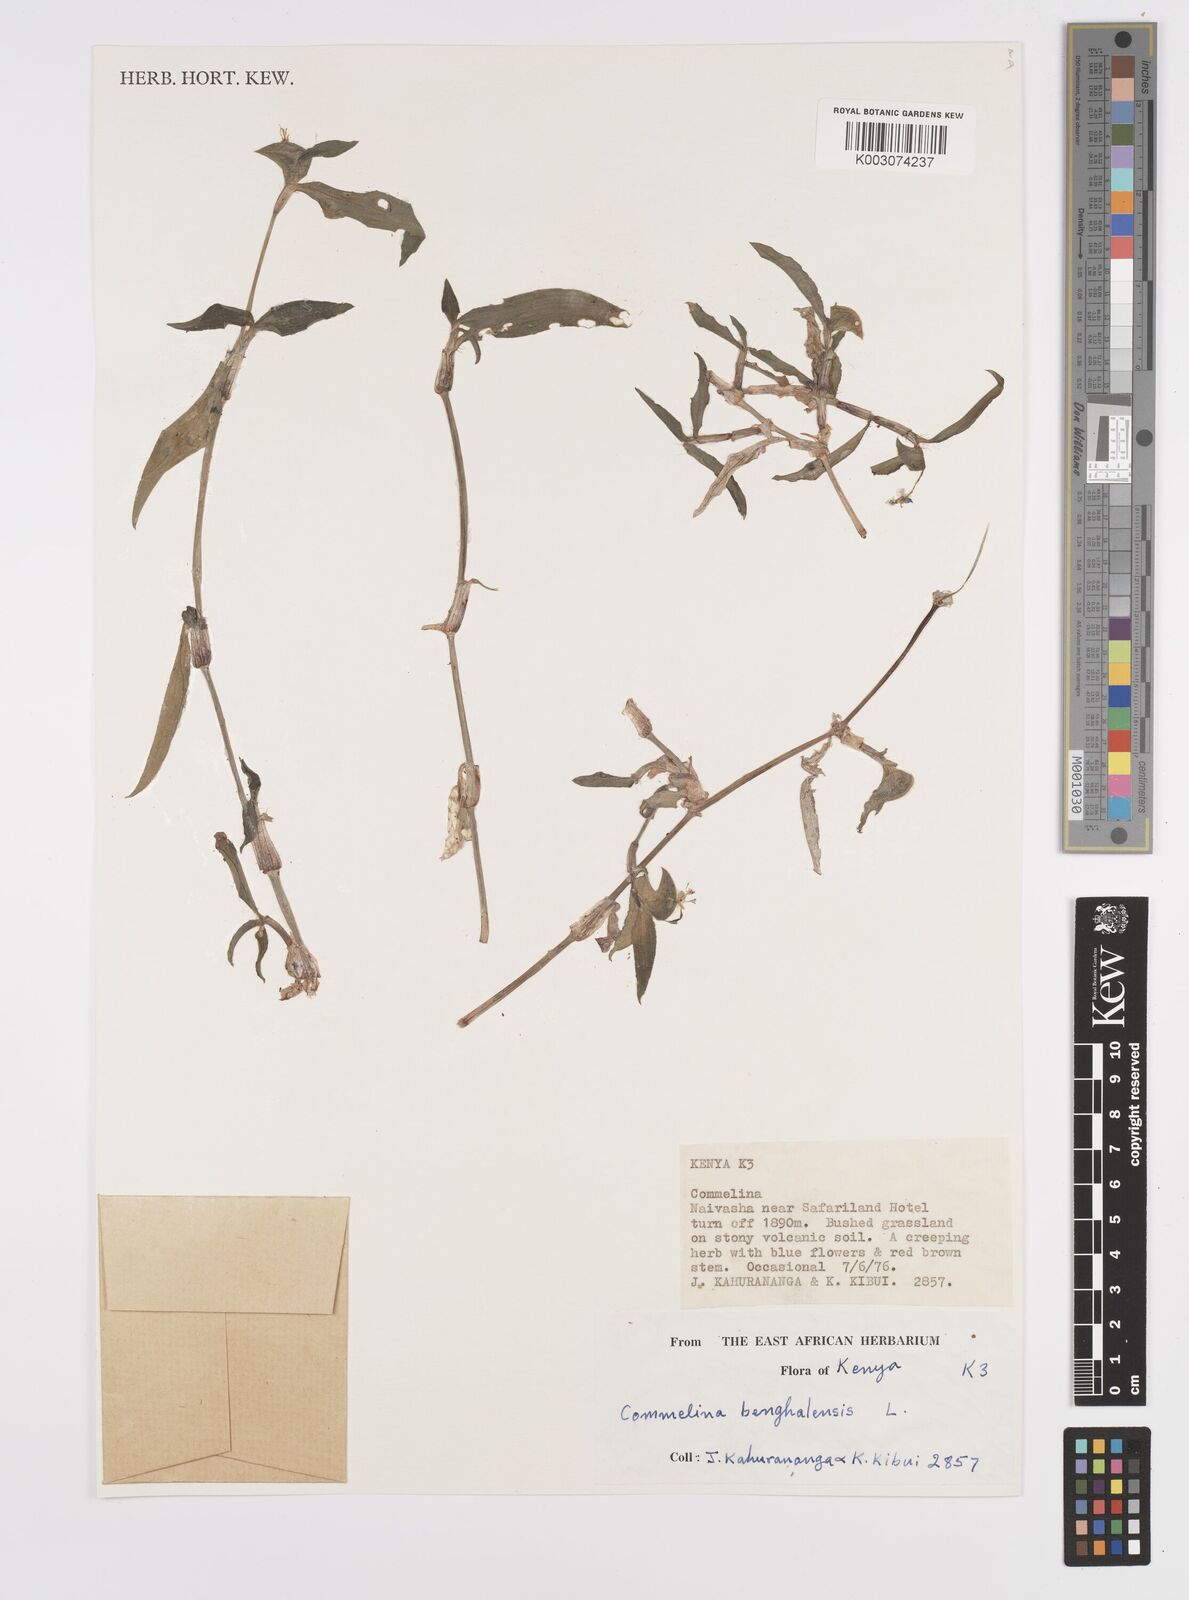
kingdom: Plantae
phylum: Tracheophyta
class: Liliopsida
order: Commelinales
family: Commelinaceae
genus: Commelina
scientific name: Commelina benghalensis
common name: Jio
